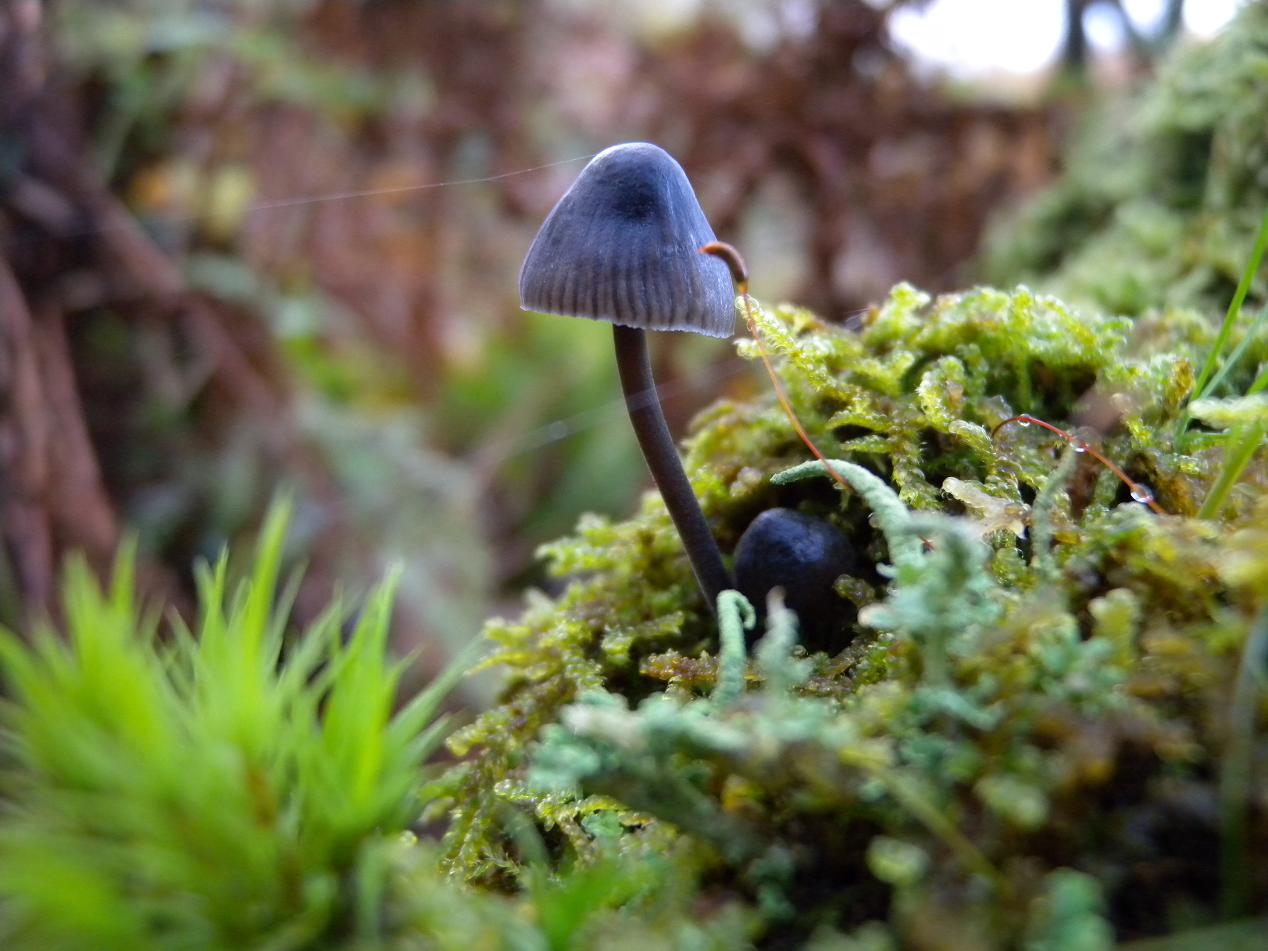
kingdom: Fungi
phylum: Basidiomycota
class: Agaricomycetes
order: Agaricales
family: Mycenaceae
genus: Mycena
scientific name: Mycena
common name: huesvamp
